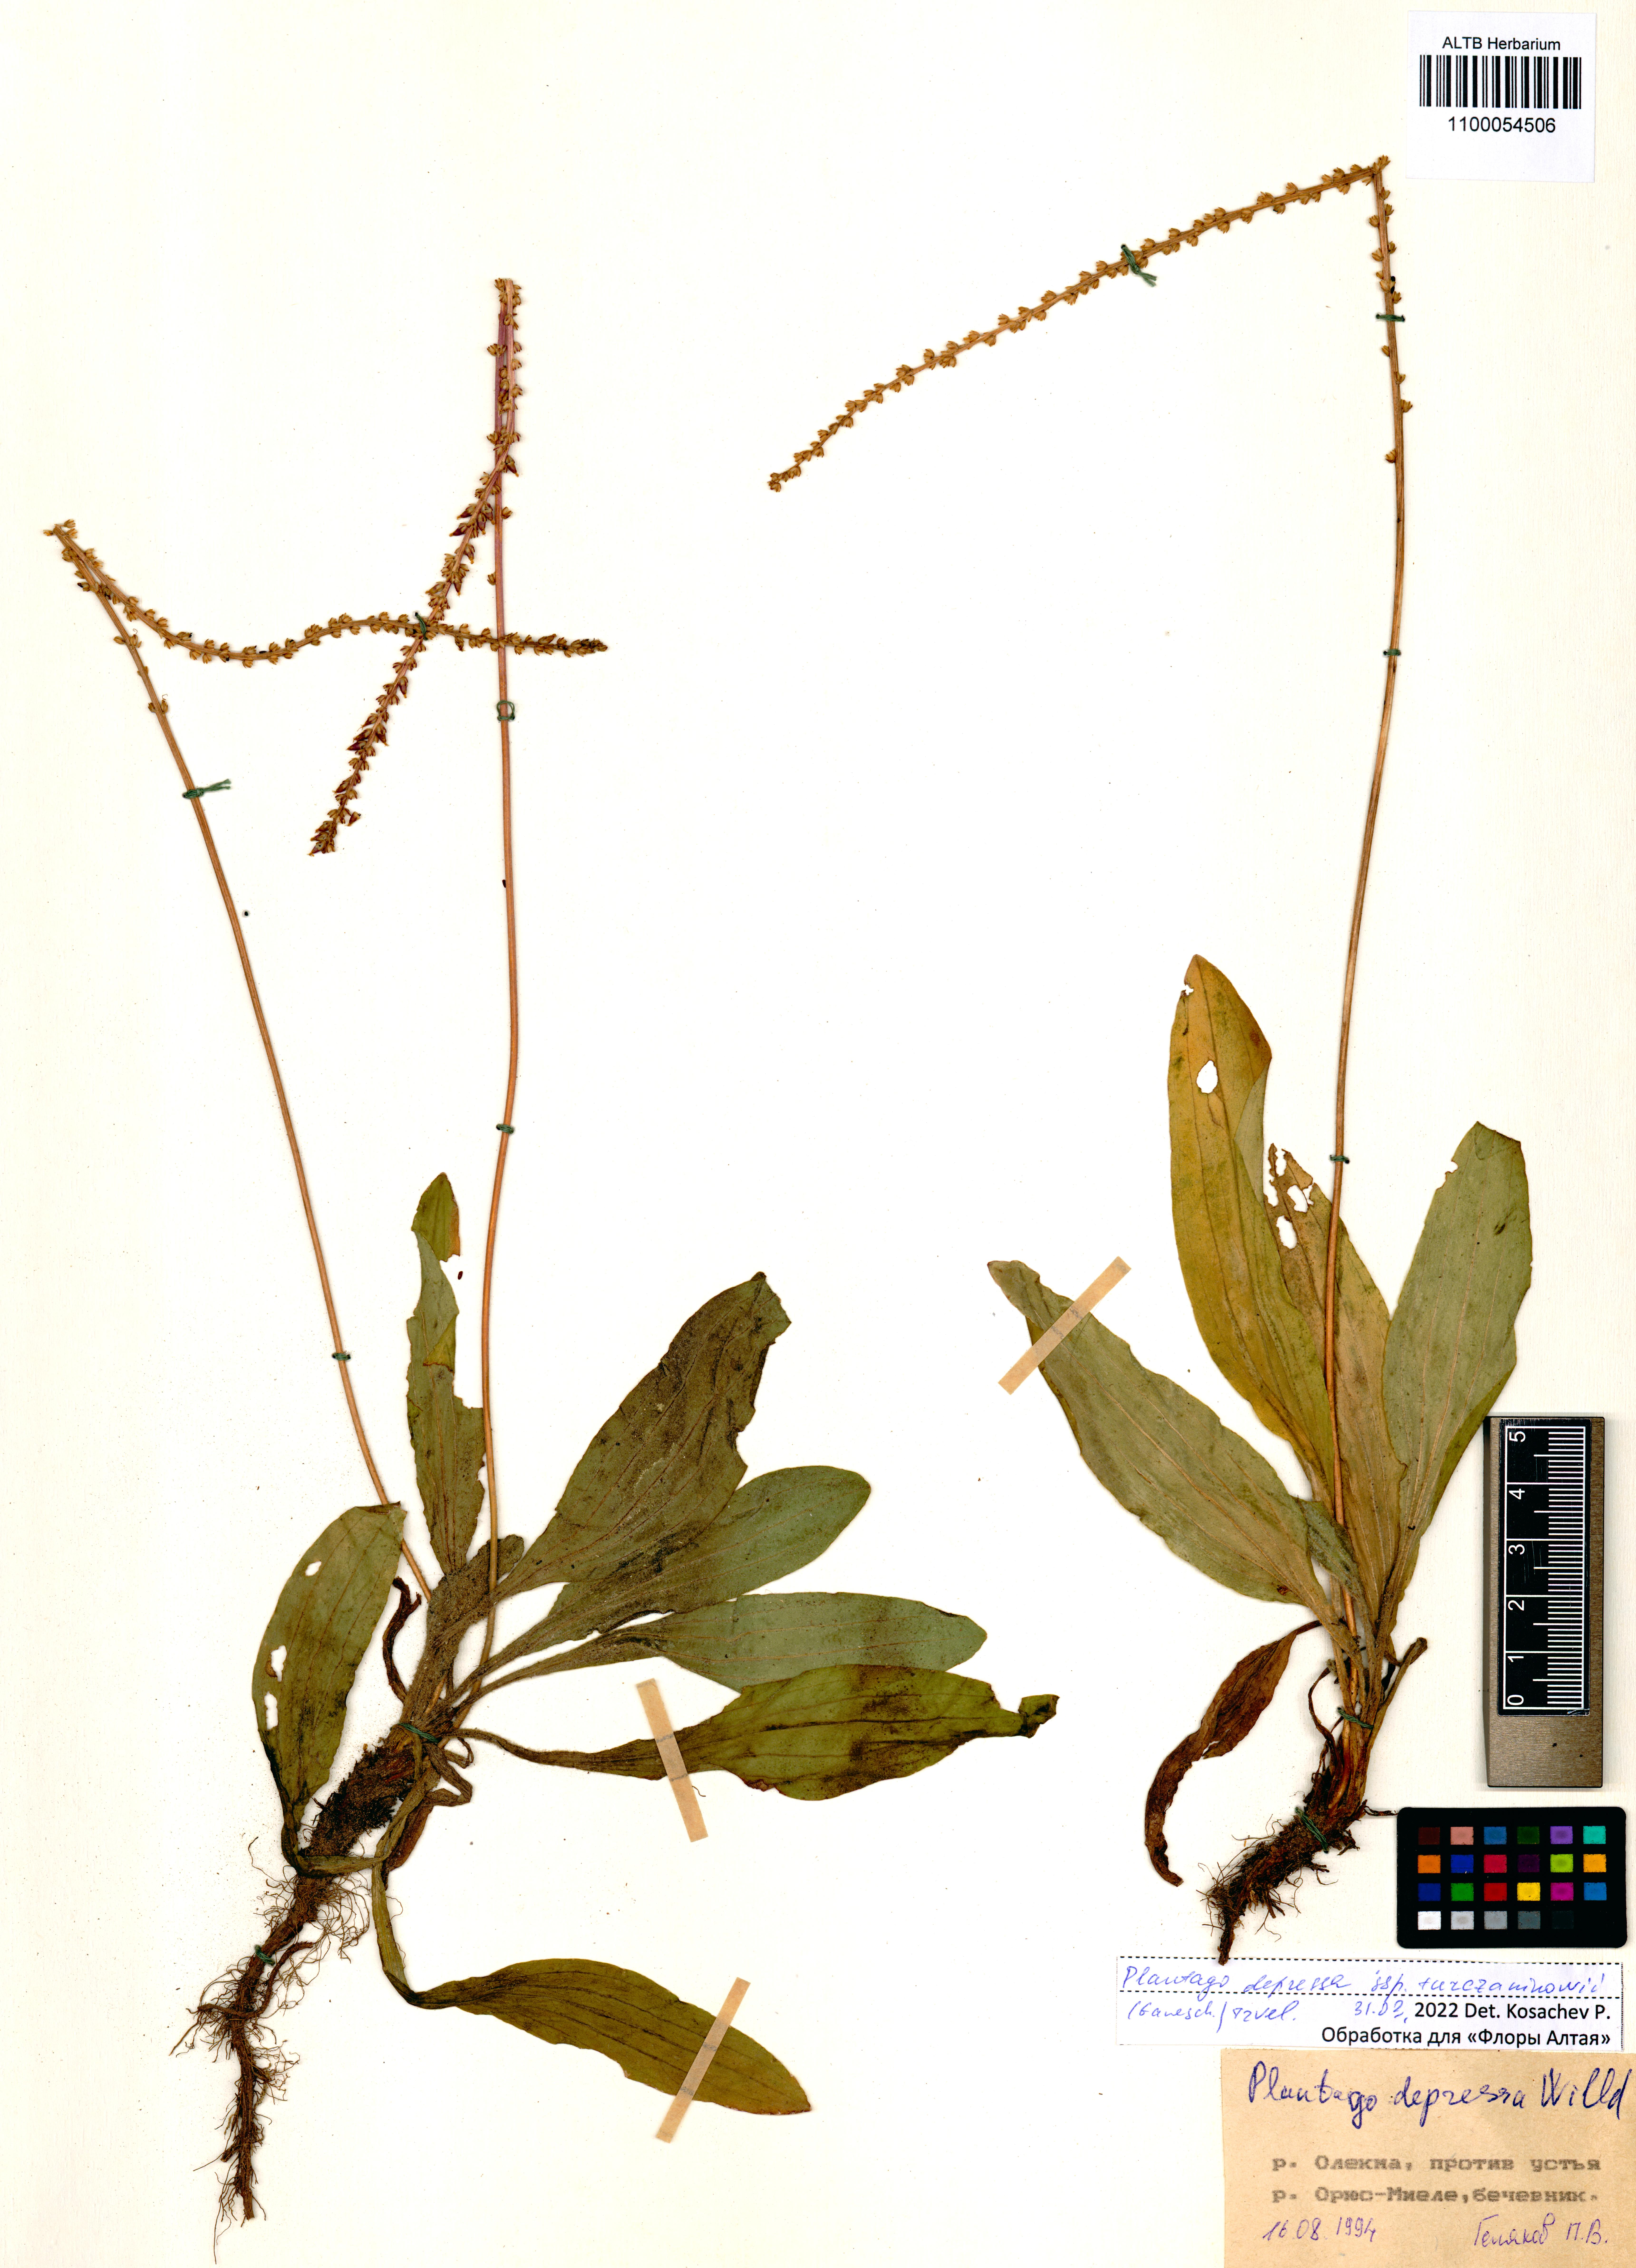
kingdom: Plantae
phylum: Tracheophyta
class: Magnoliopsida
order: Lamiales
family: Plantaginaceae
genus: Plantago
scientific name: Plantago depressa
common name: Depressed plantain
